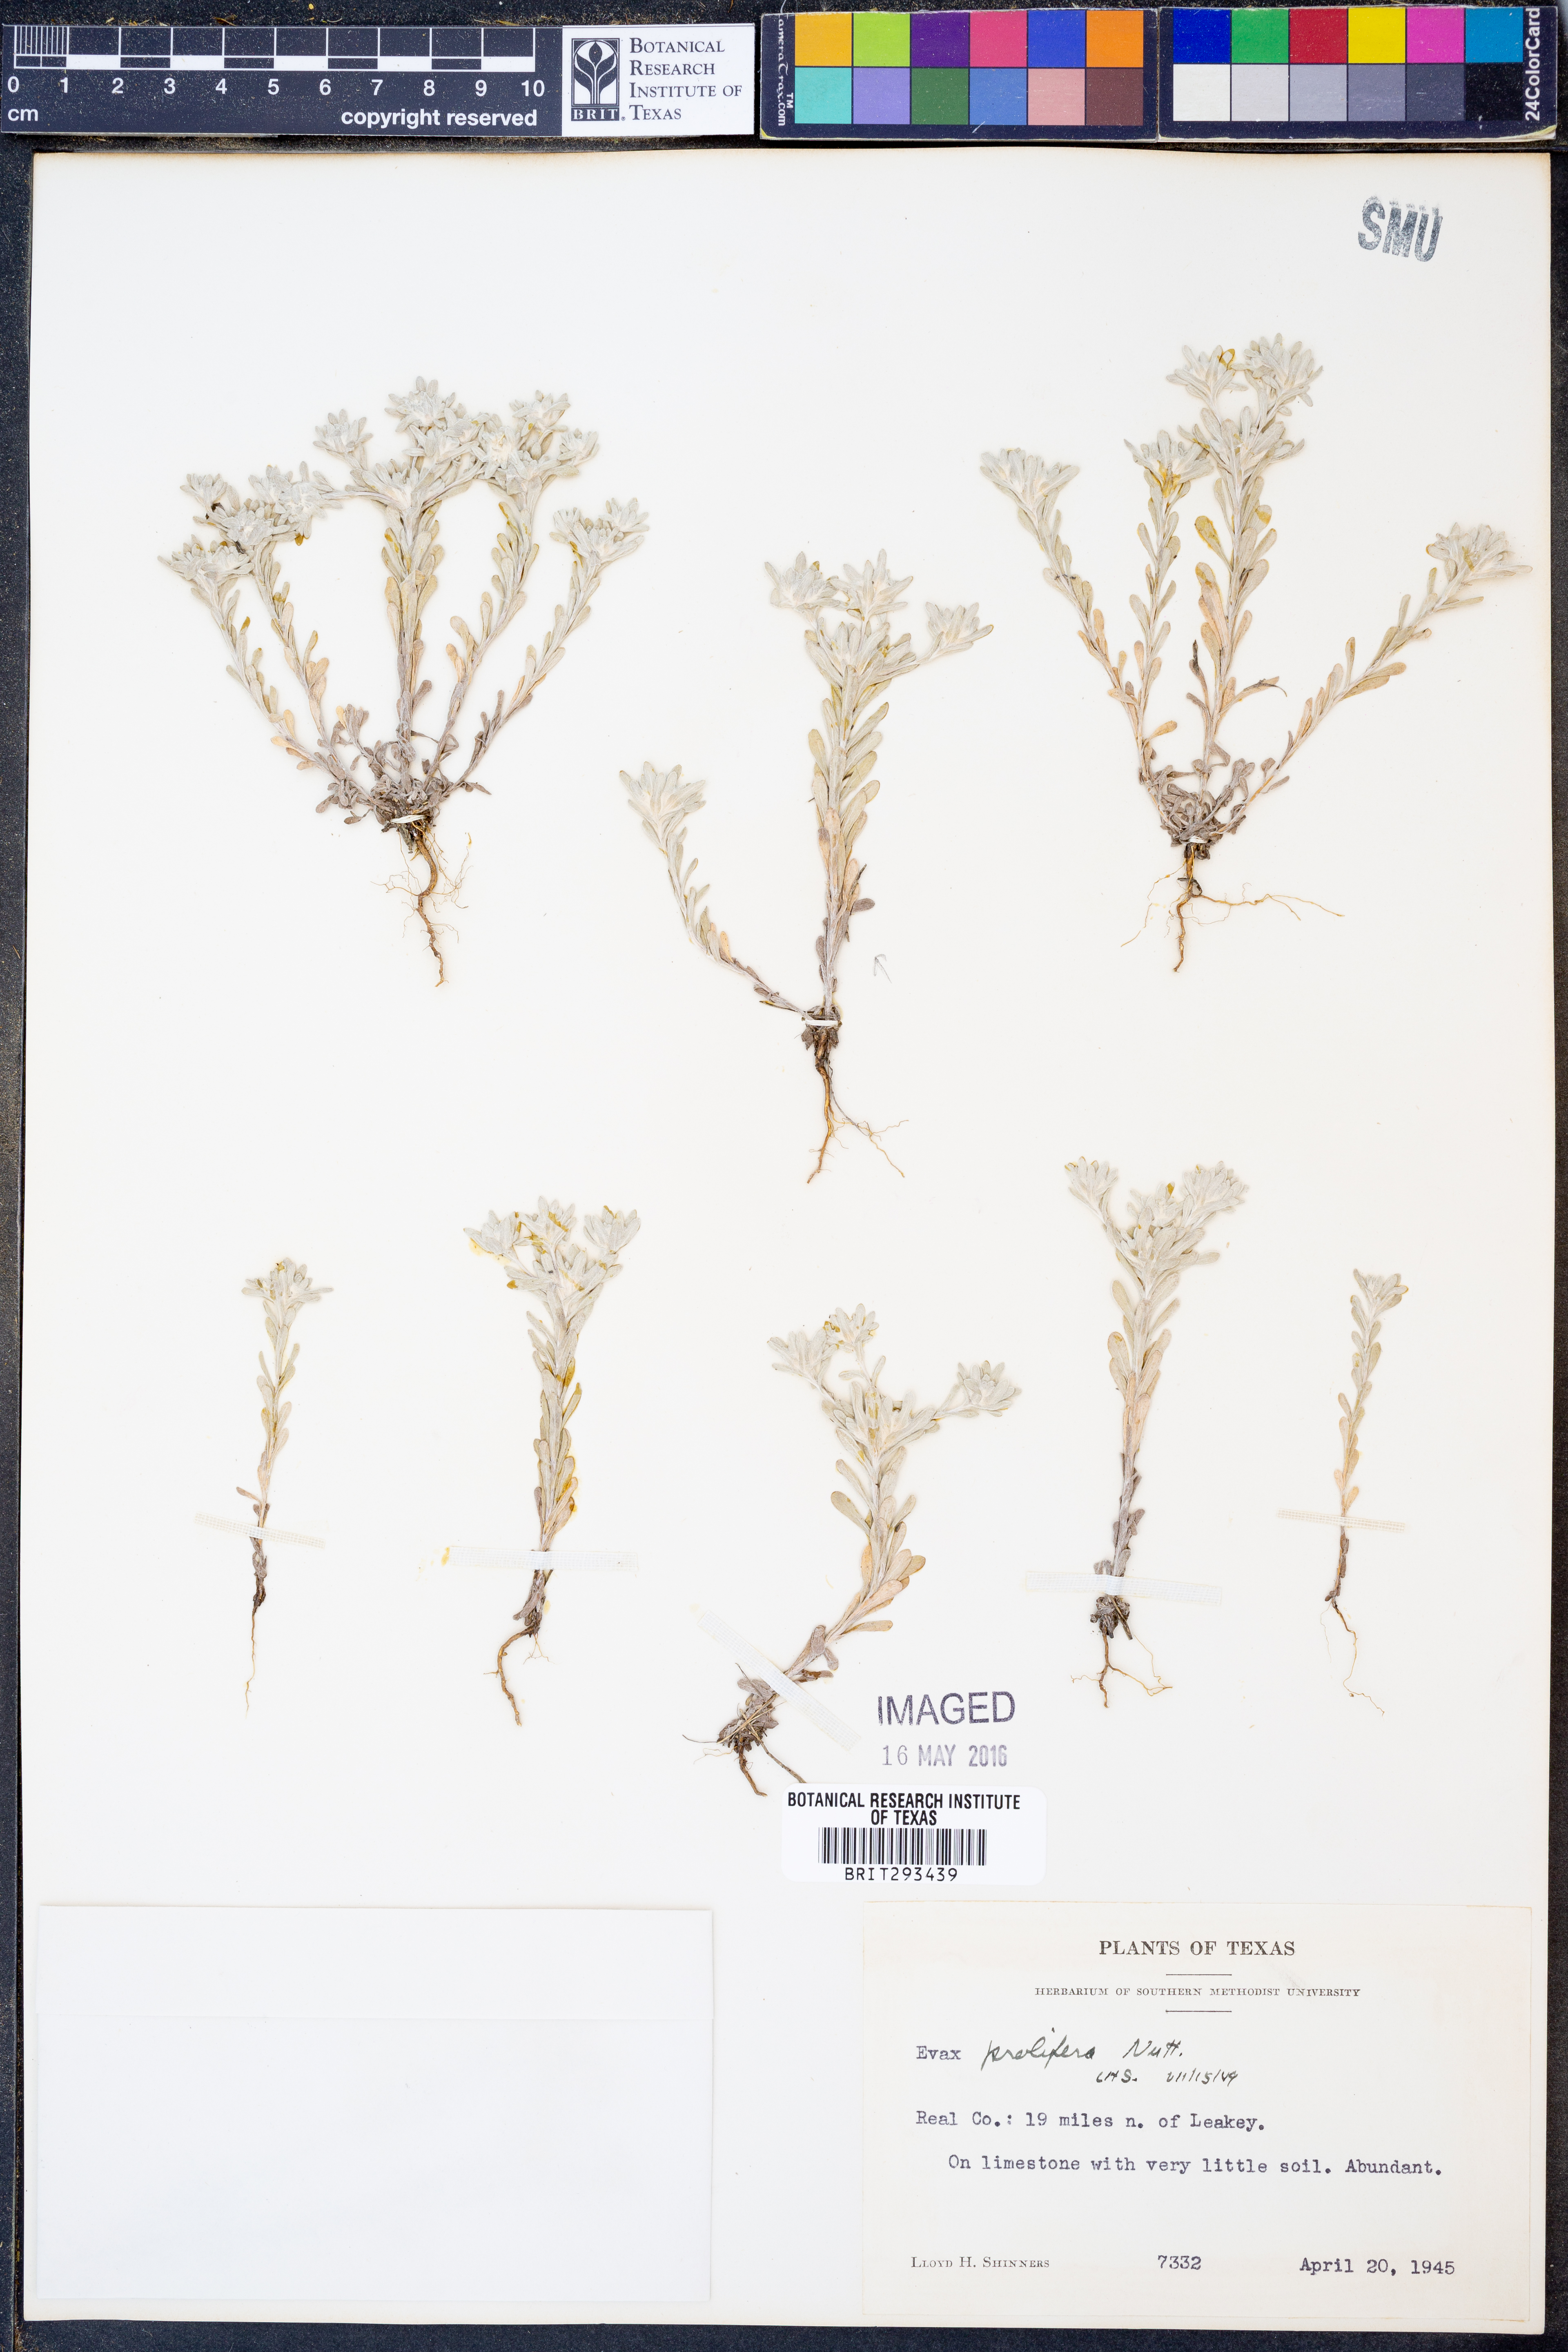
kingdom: Plantae
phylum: Tracheophyta
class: Magnoliopsida
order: Asterales
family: Asteraceae
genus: Diaperia
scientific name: Diaperia prolifera
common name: Big-head rabbit-tobacco
